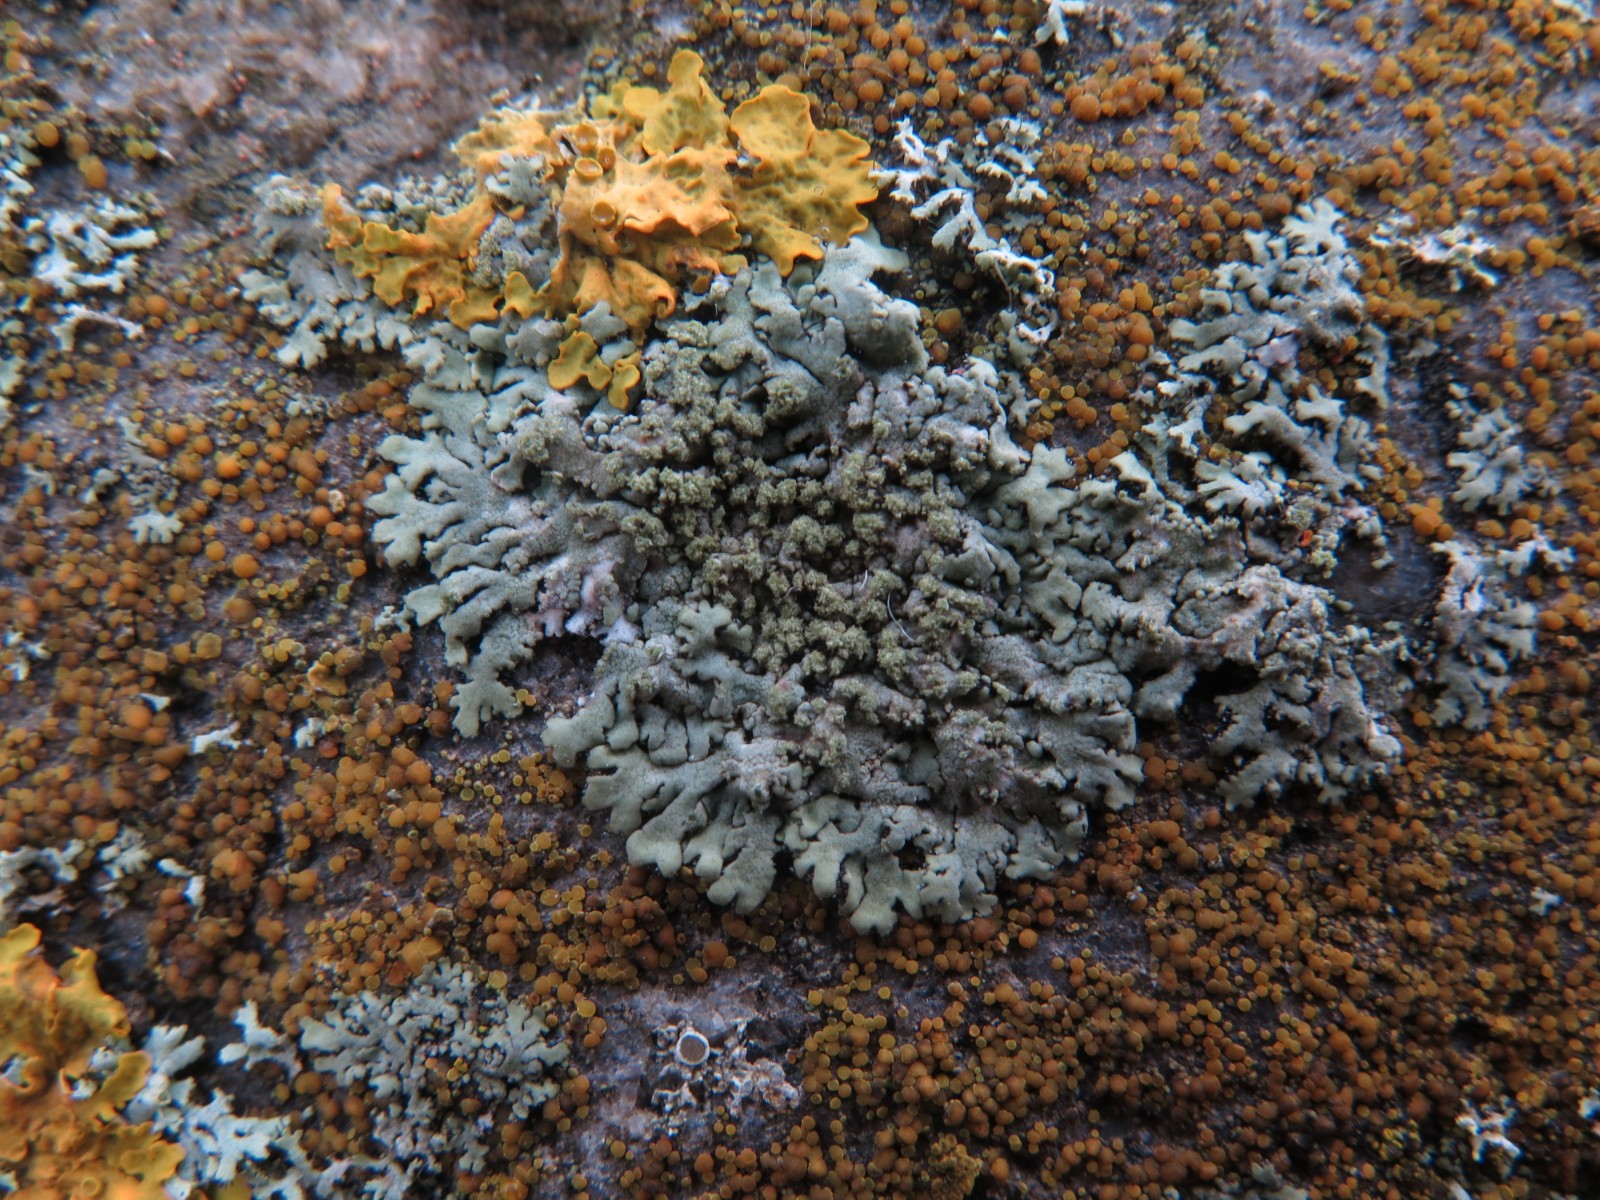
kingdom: Fungi
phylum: Ascomycota
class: Lecanoromycetes
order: Caliciales
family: Physciaceae
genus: Physcia
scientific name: Physcia caesia
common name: blågrå rosetlav
